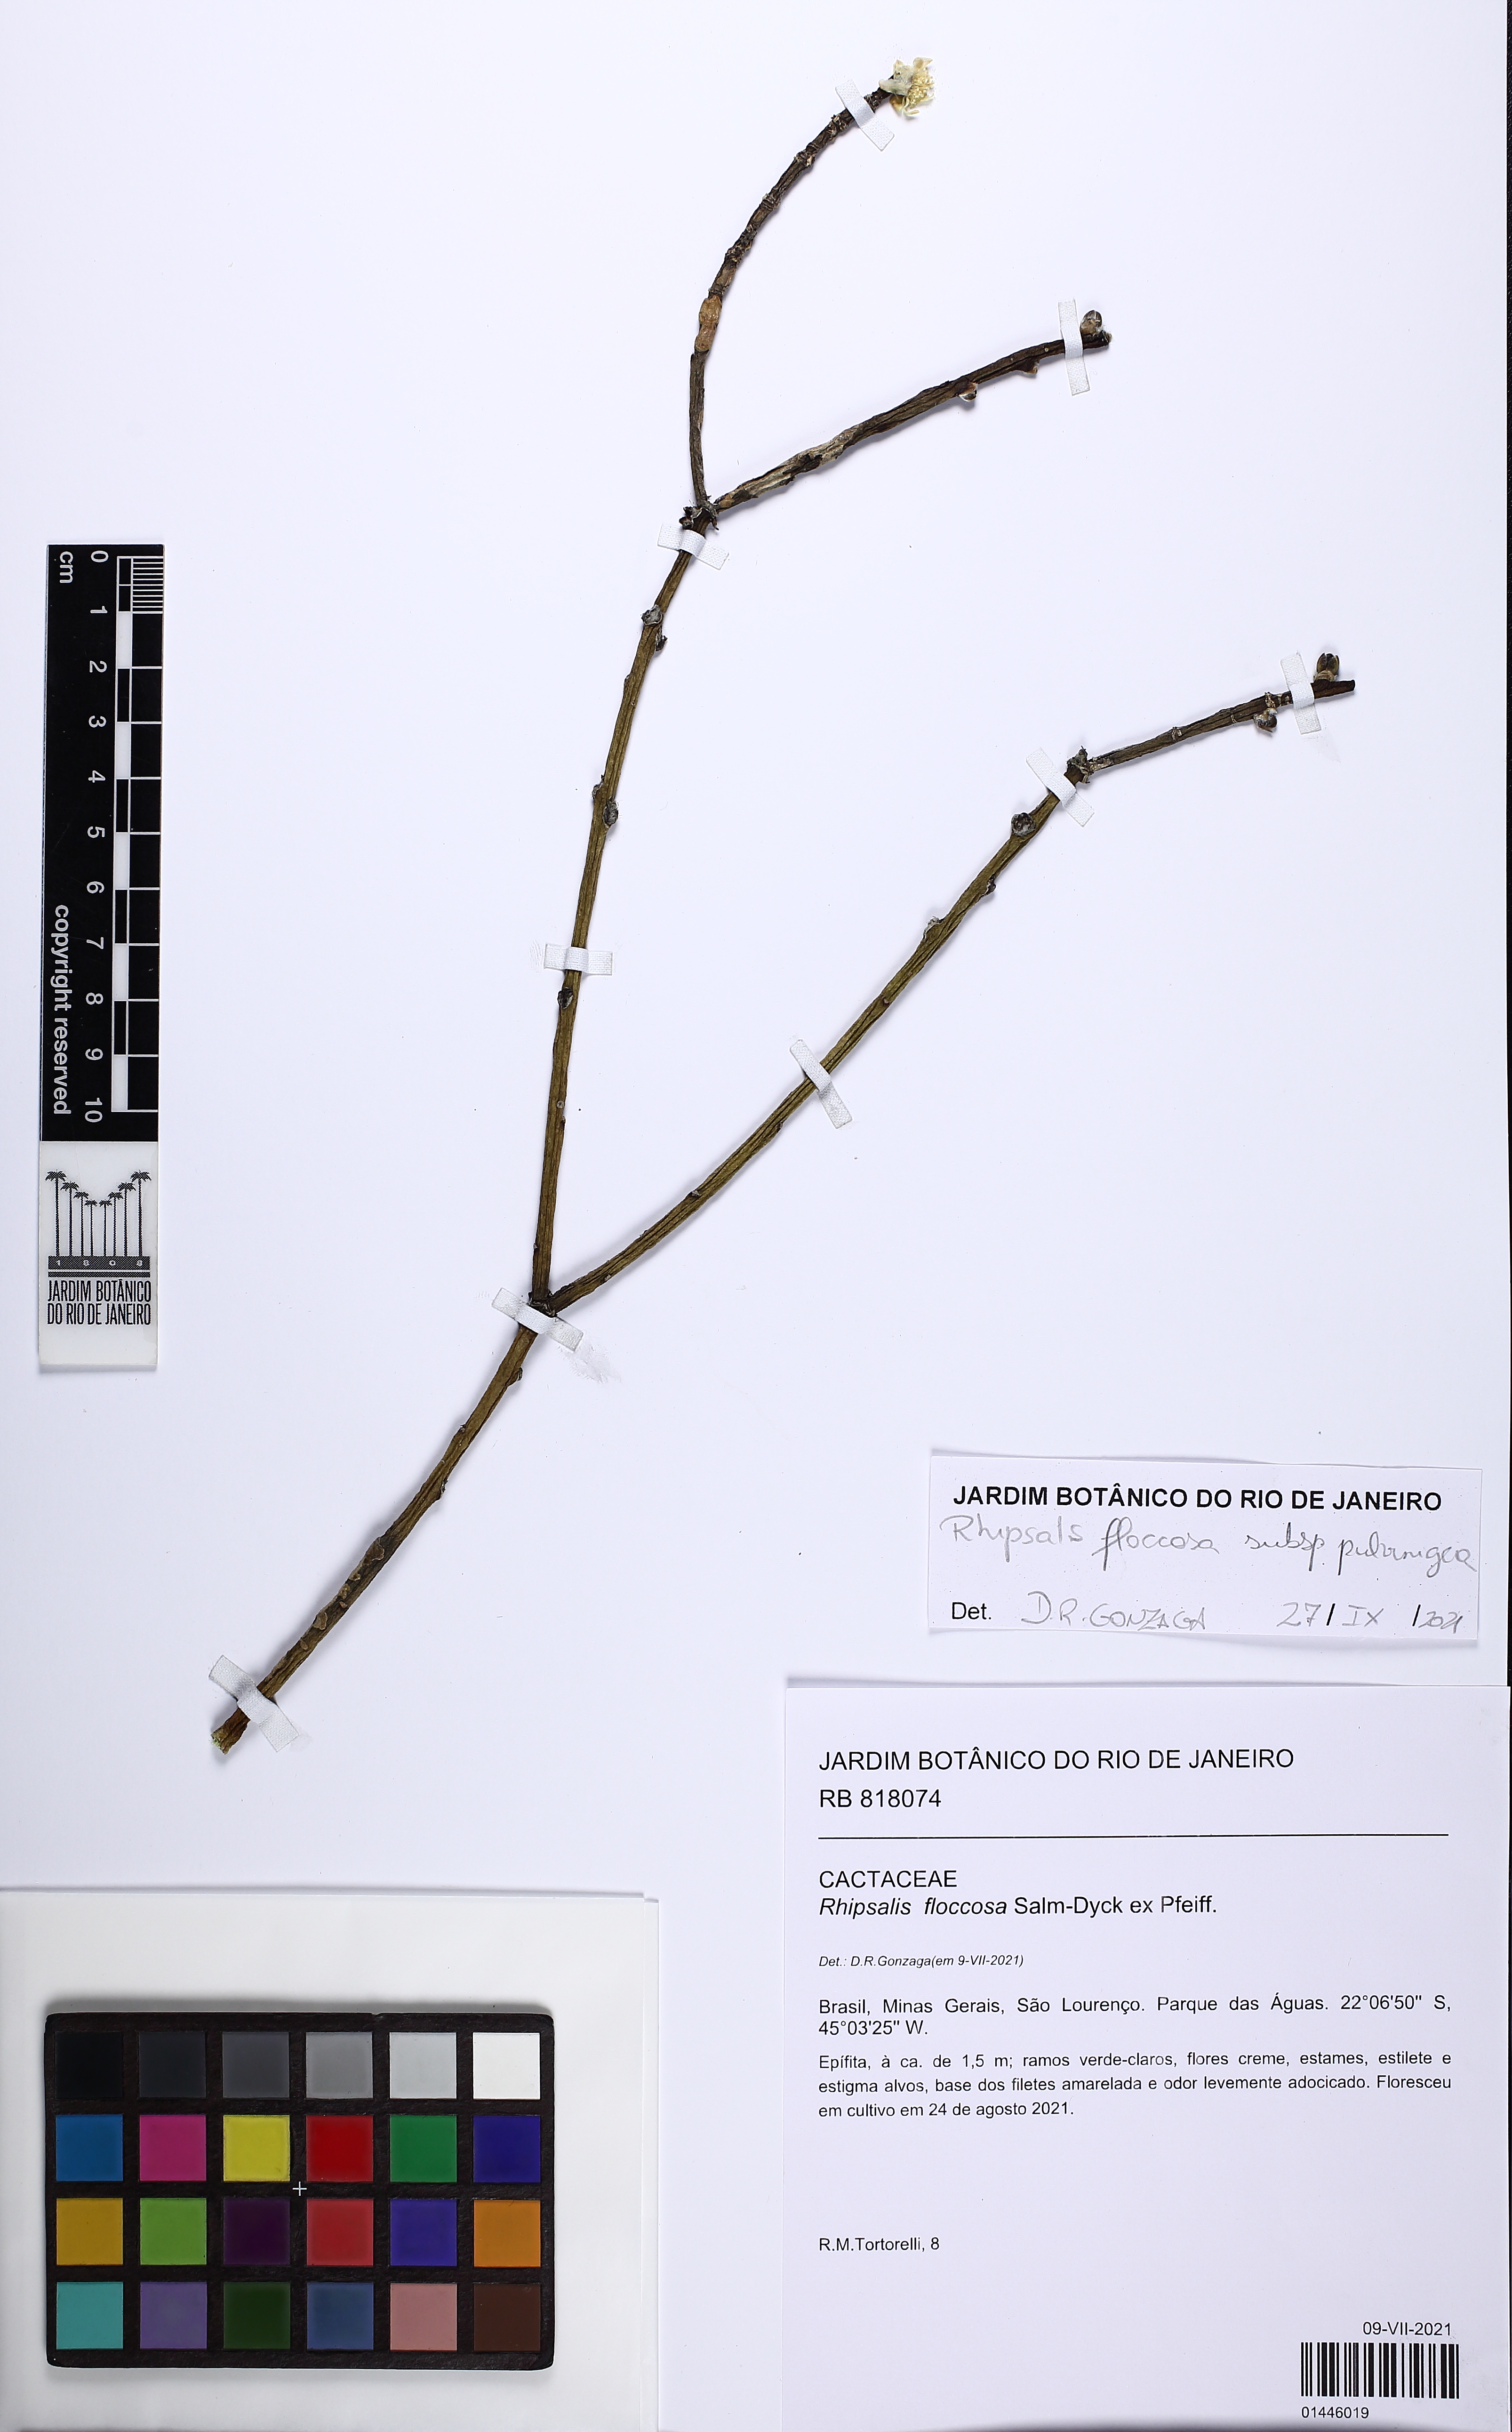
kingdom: Plantae
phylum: Tracheophyta
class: Magnoliopsida
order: Caryophyllales
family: Cactaceae
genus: Rhipsalis
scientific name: Rhipsalis floccosa
